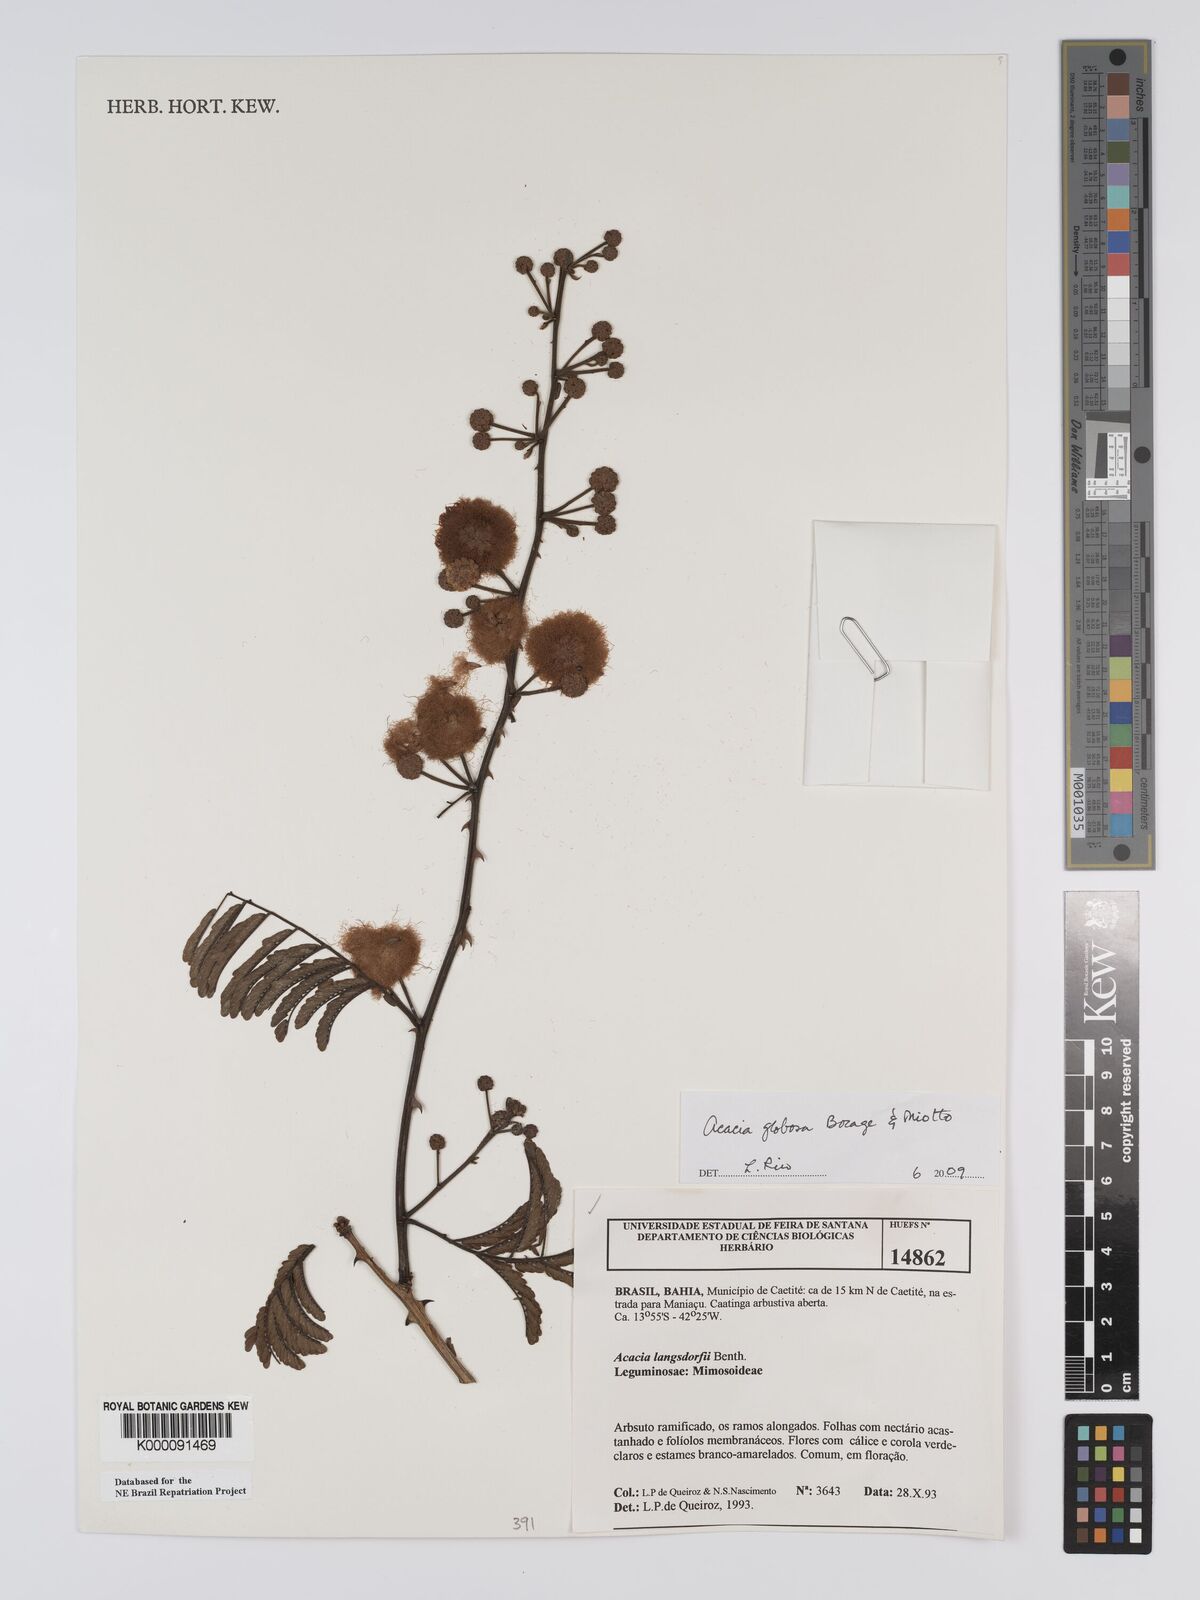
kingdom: Plantae
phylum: Tracheophyta
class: Magnoliopsida
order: Fabales
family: Fabaceae
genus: Senegalia
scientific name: Senegalia globosa
